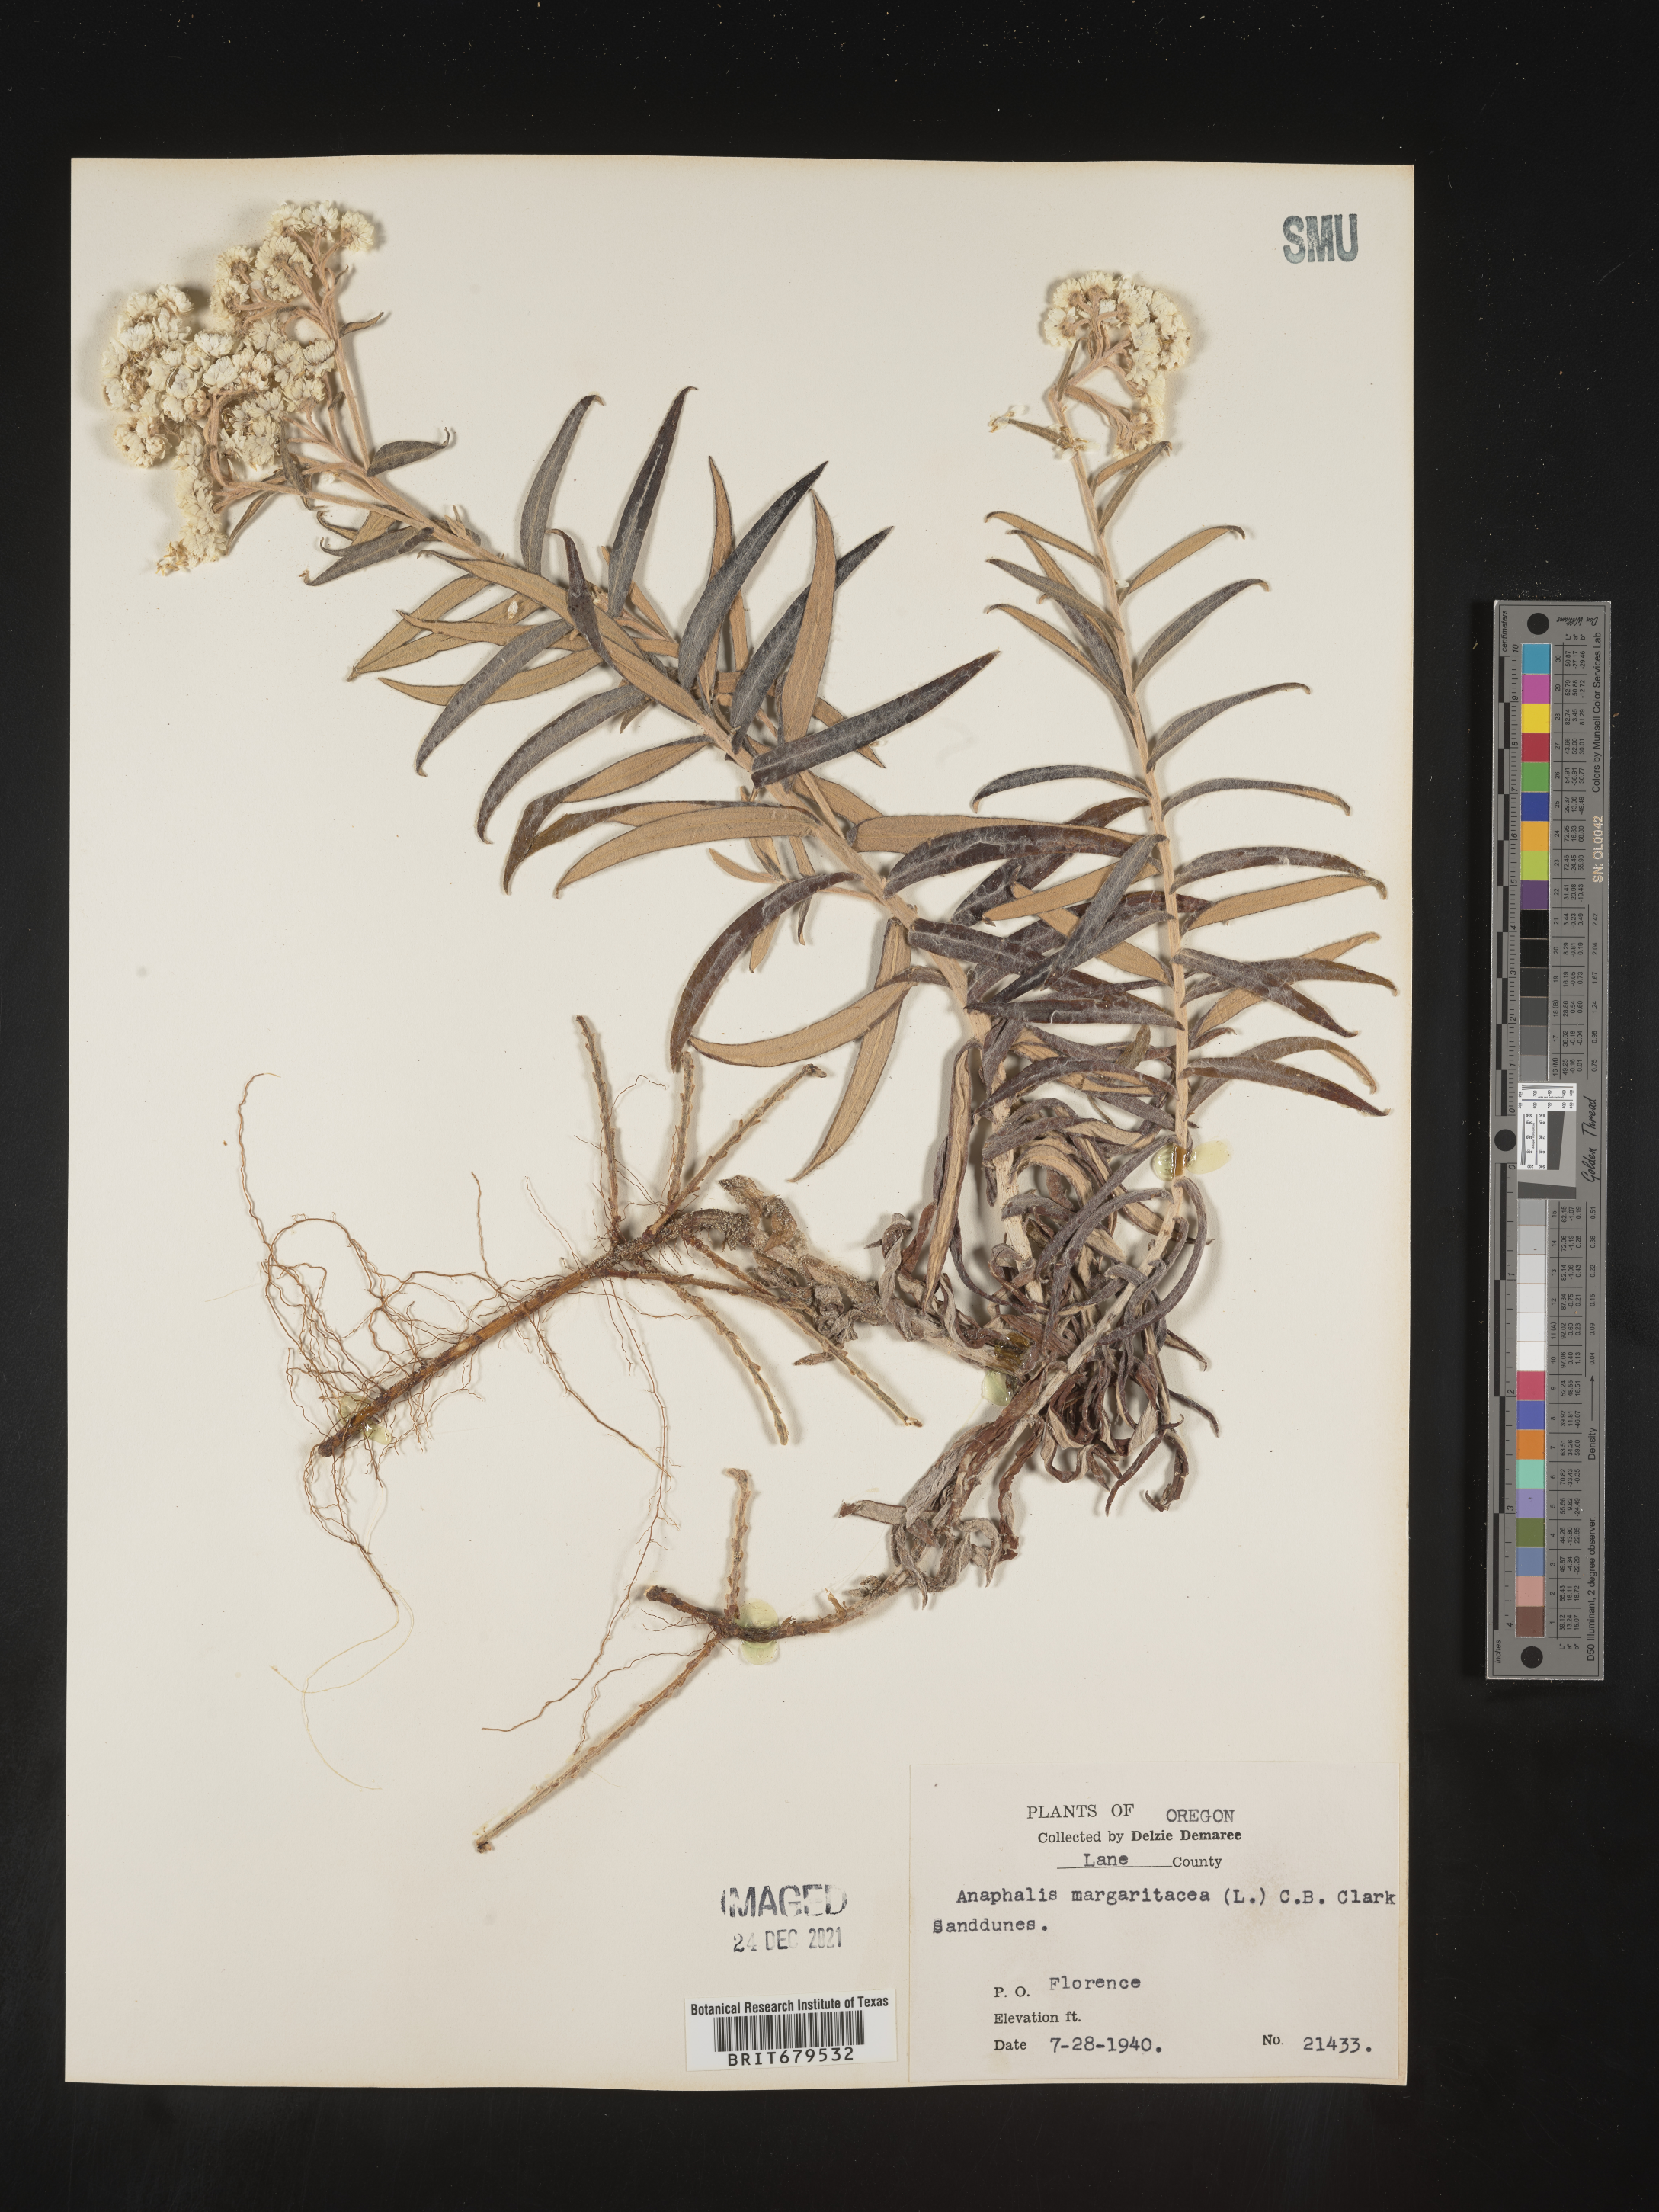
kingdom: Plantae
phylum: Tracheophyta
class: Magnoliopsida
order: Asterales
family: Asteraceae
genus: Anaphalis
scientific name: Anaphalis margaritacea
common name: Pearly everlasting
